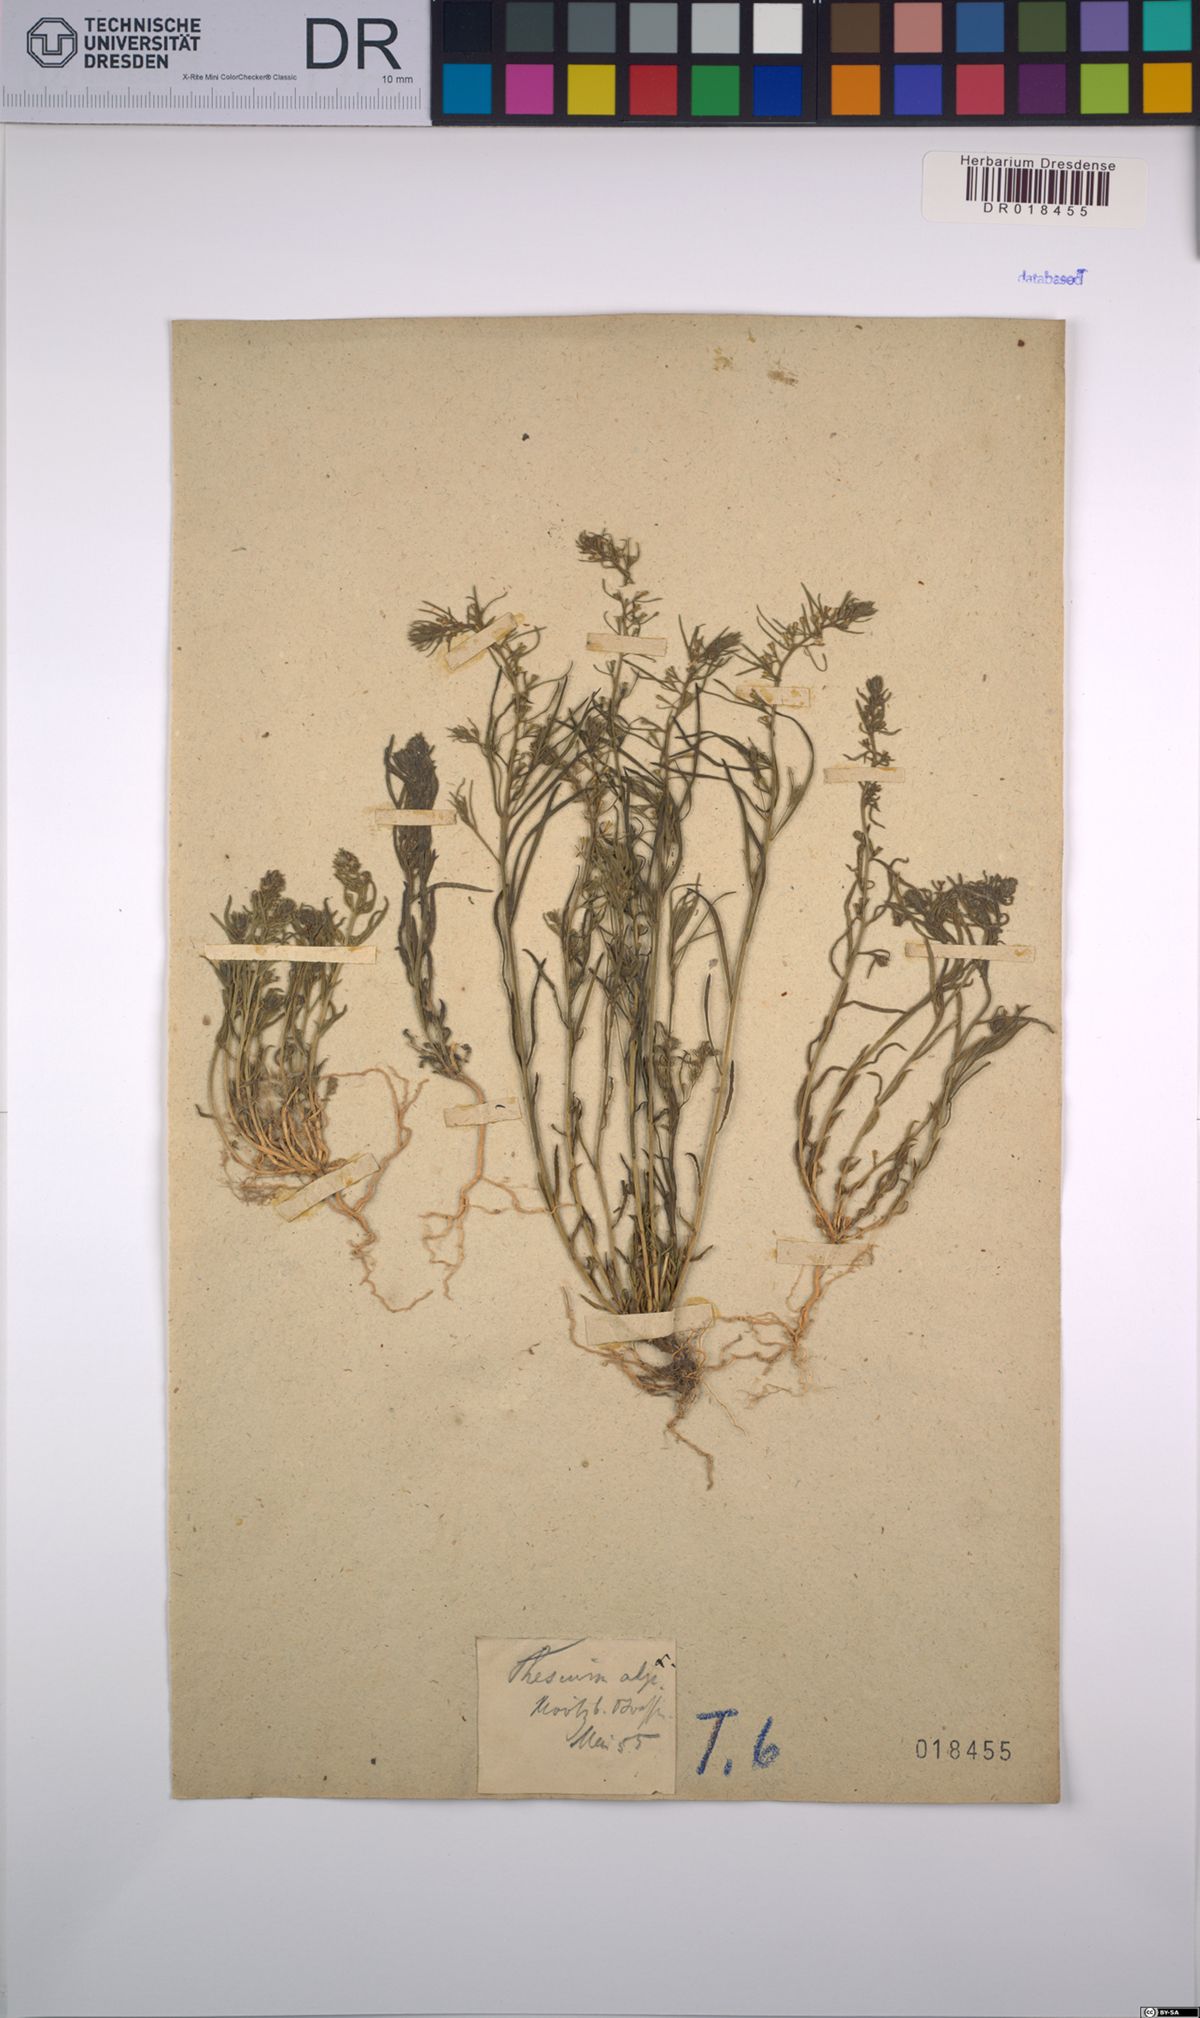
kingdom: Plantae
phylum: Tracheophyta
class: Magnoliopsida
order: Santalales
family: Thesiaceae
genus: Thesium
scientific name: Thesium alpinum
